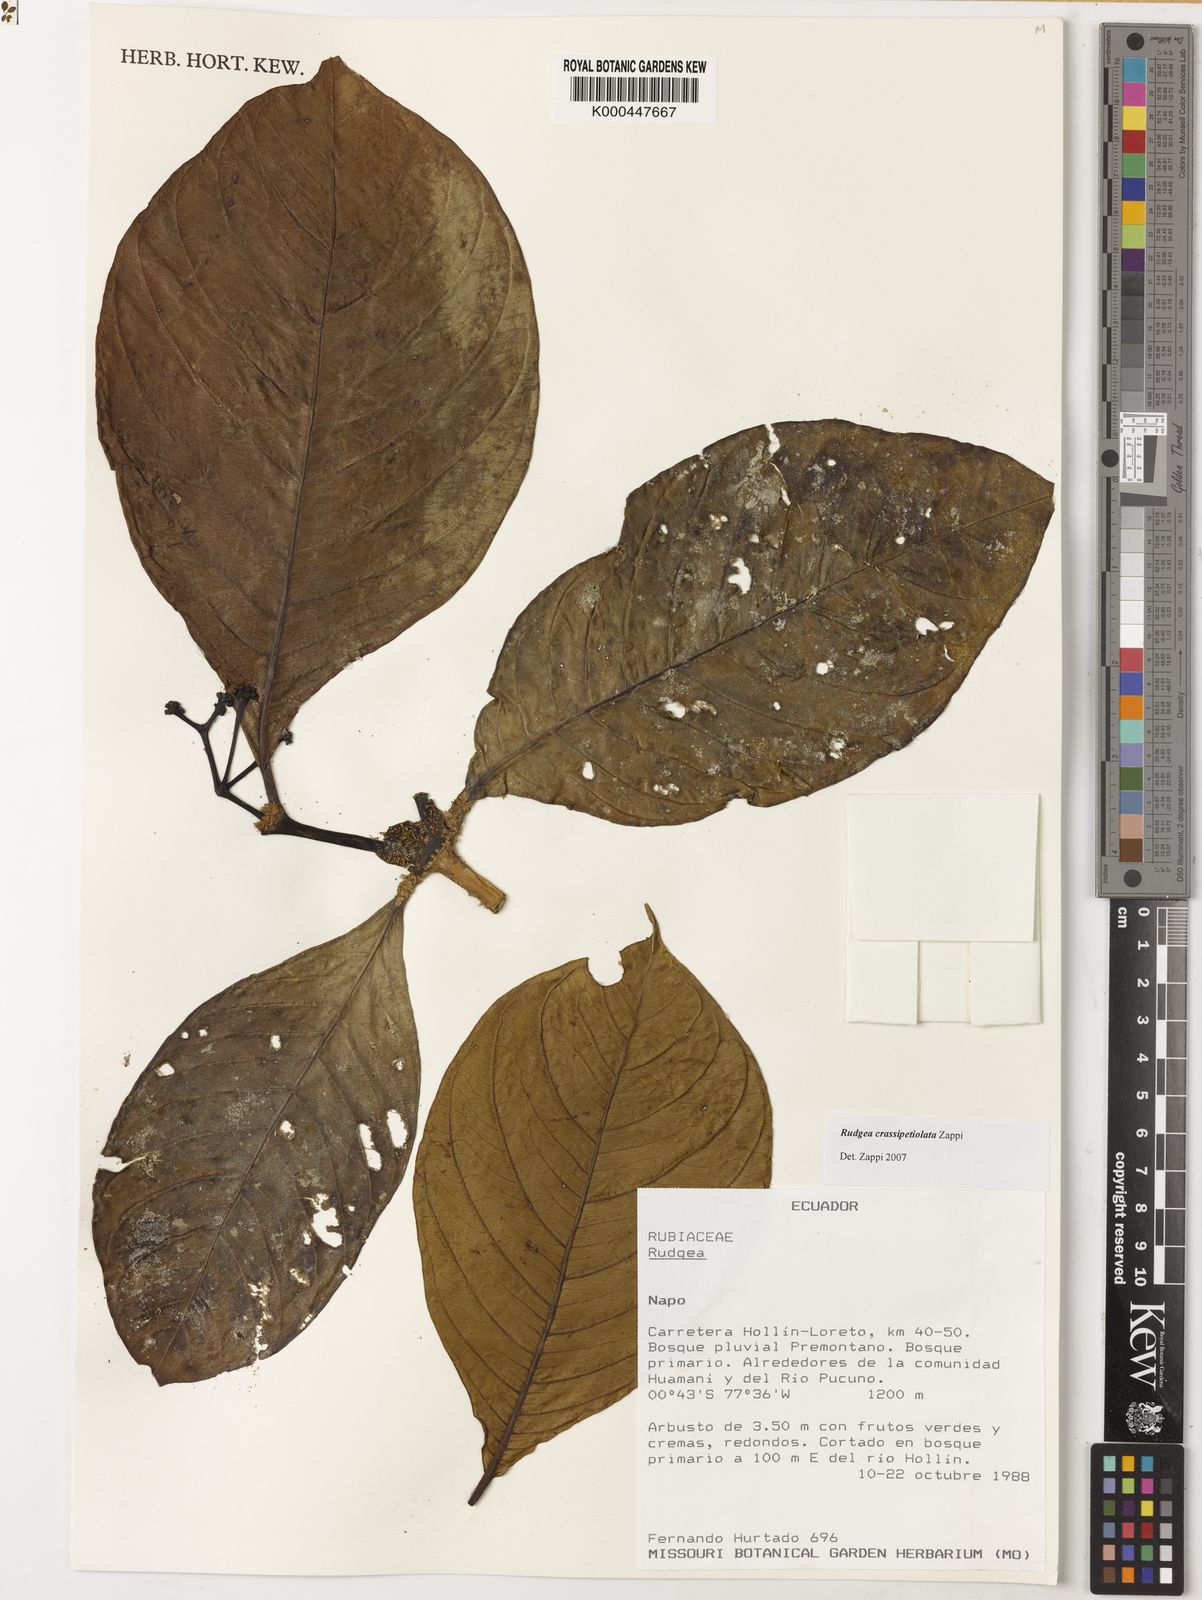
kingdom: Plantae
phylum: Tracheophyta
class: Magnoliopsida
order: Gentianales
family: Rubiaceae
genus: Rudgea
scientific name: Rudgea crassipetiolata
